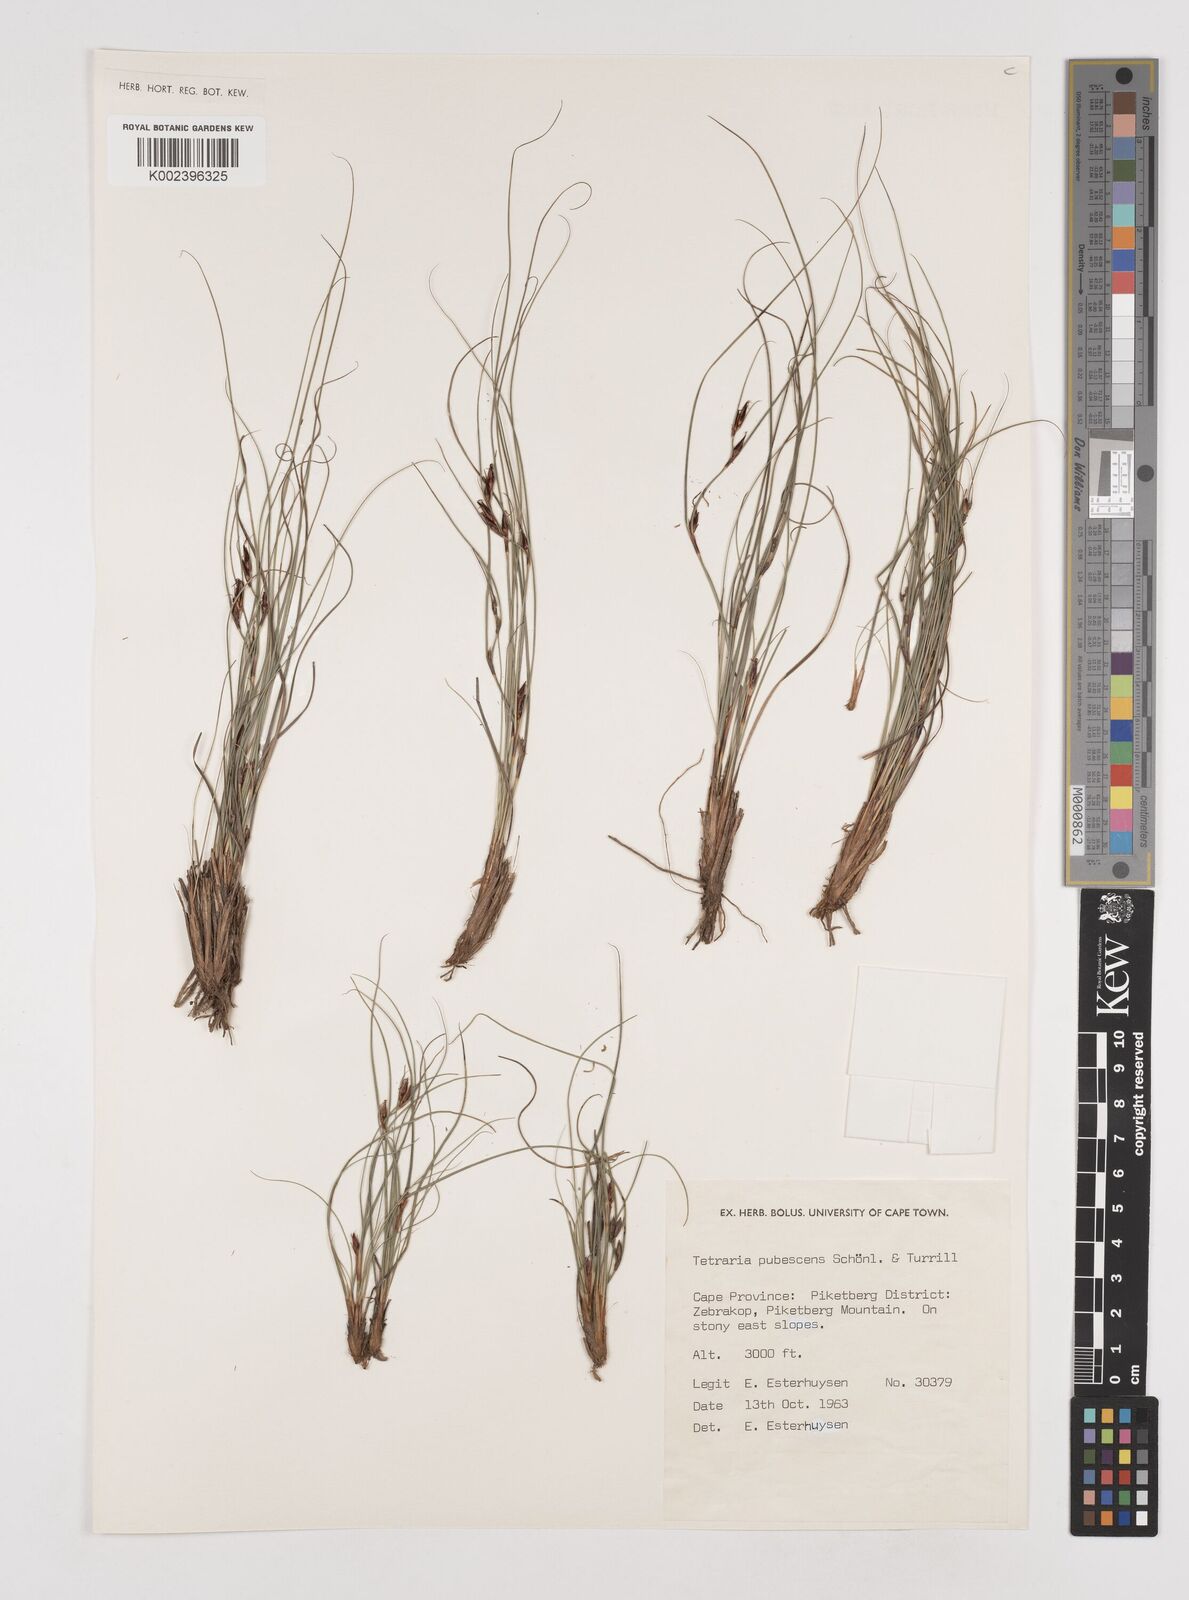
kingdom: Plantae
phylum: Tracheophyta
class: Liliopsida
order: Poales
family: Cyperaceae
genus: Tetraria
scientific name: Tetraria pubescens
